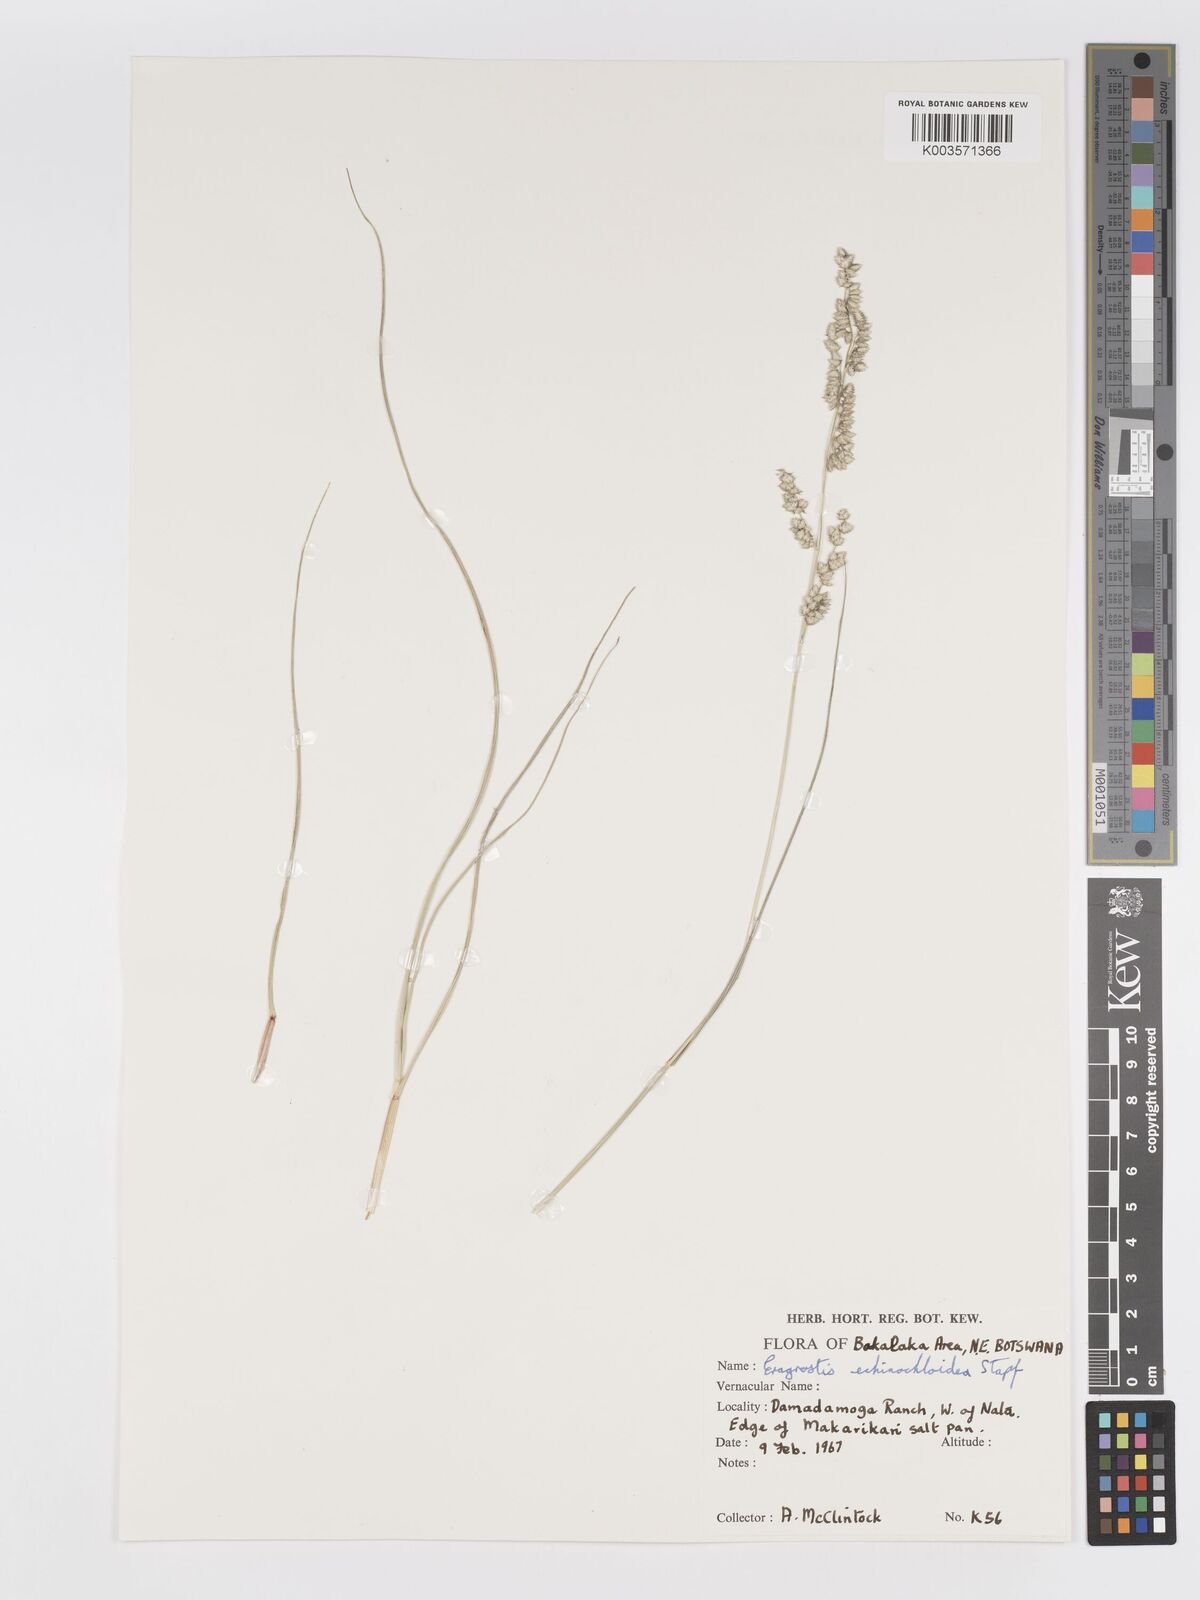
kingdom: Plantae
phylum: Tracheophyta
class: Liliopsida
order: Poales
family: Poaceae
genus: Eragrostis
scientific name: Eragrostis echinochloidea
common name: African lovegrass
